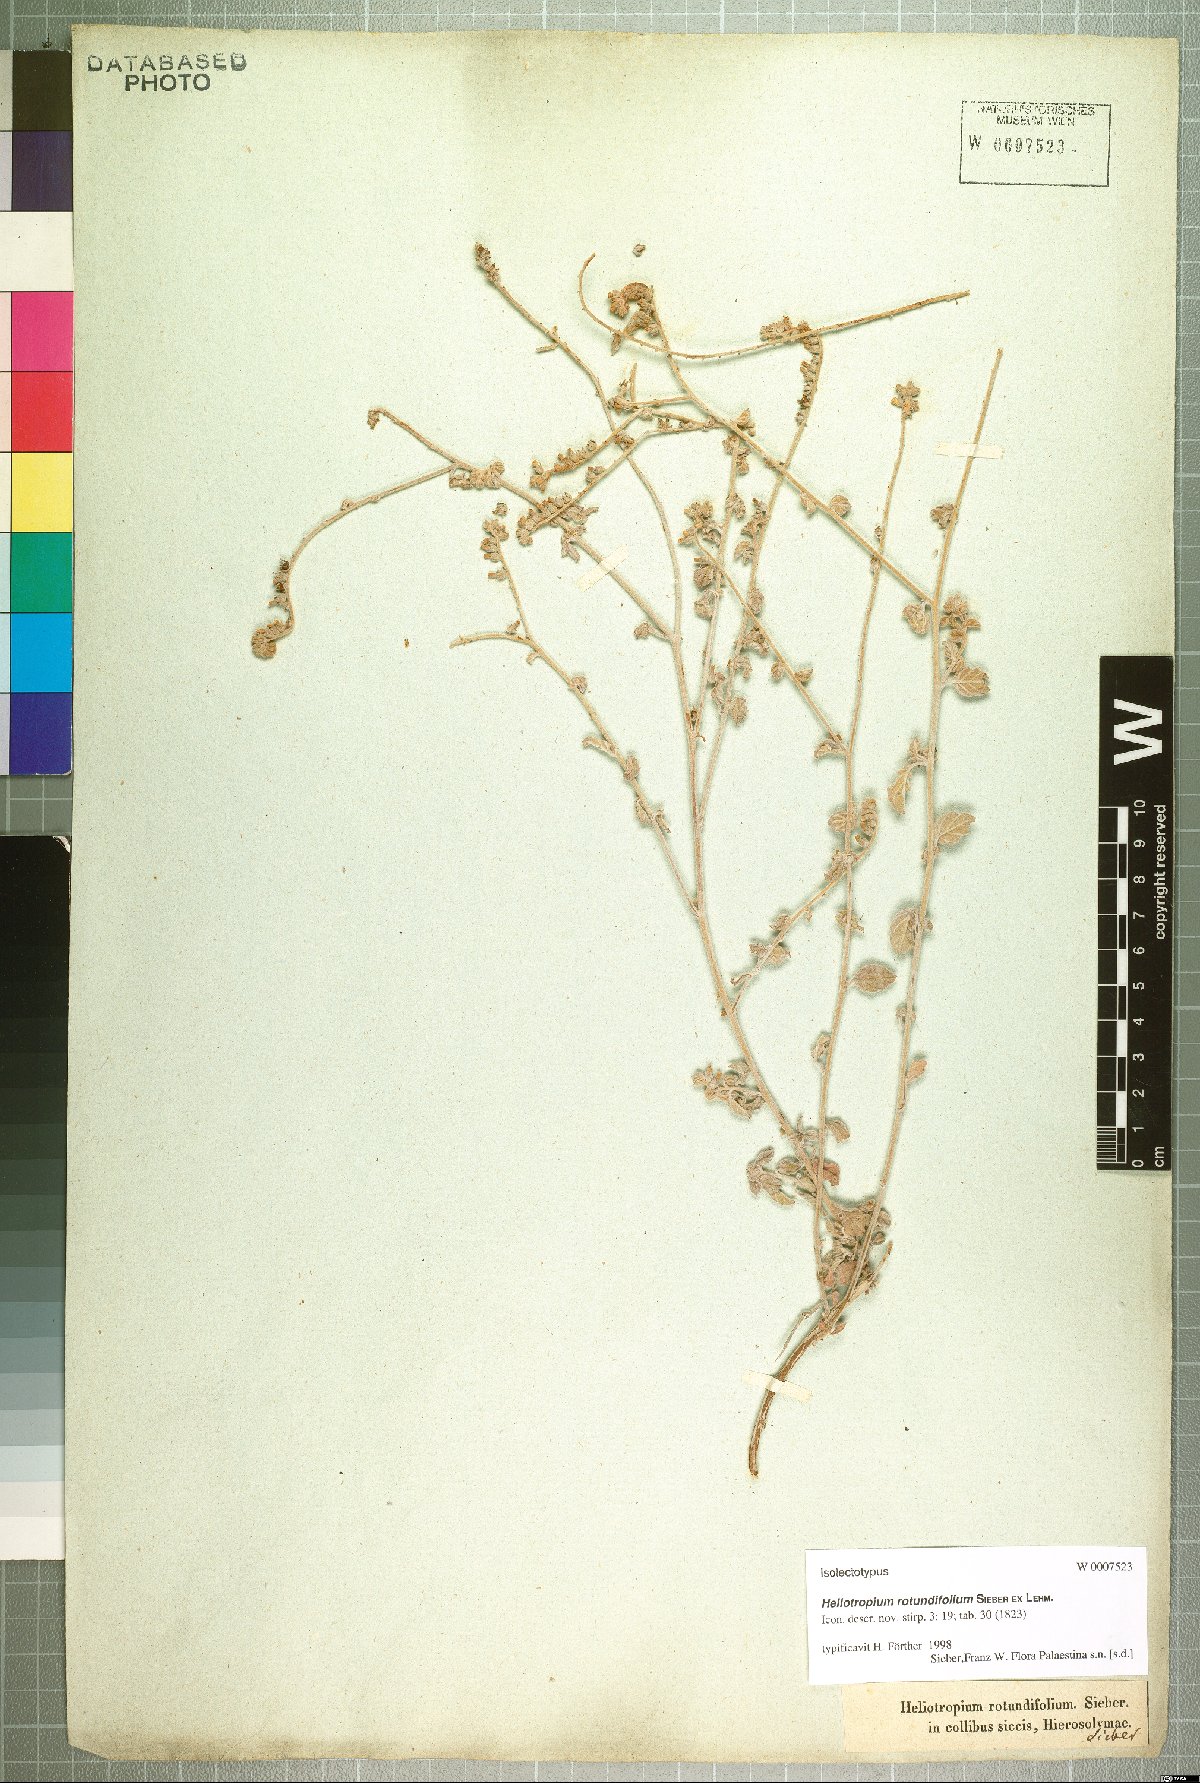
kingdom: Plantae
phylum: Tracheophyta
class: Magnoliopsida
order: Boraginales
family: Heliotropiaceae
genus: Heliotropium
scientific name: Heliotropium rotundifolium
